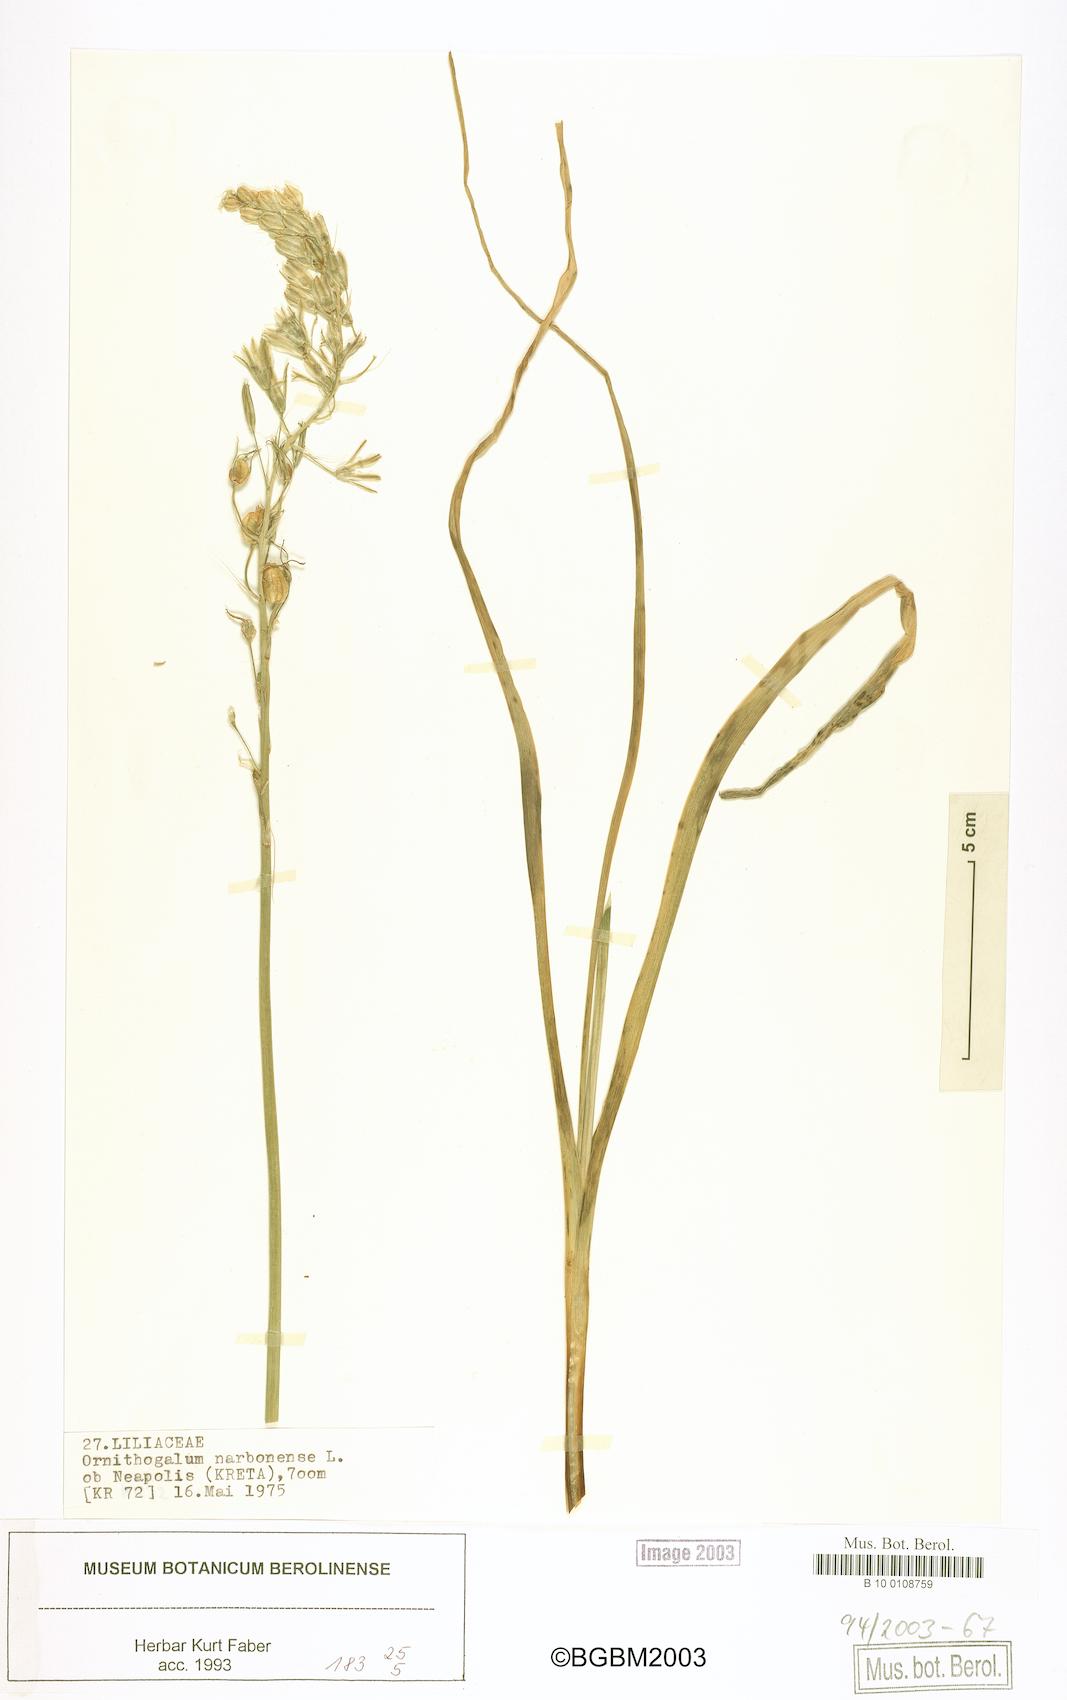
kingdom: Plantae
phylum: Tracheophyta
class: Liliopsida
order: Asparagales
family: Asparagaceae
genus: Ornithogalum
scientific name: Ornithogalum narbonense
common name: Bath-asparagus
